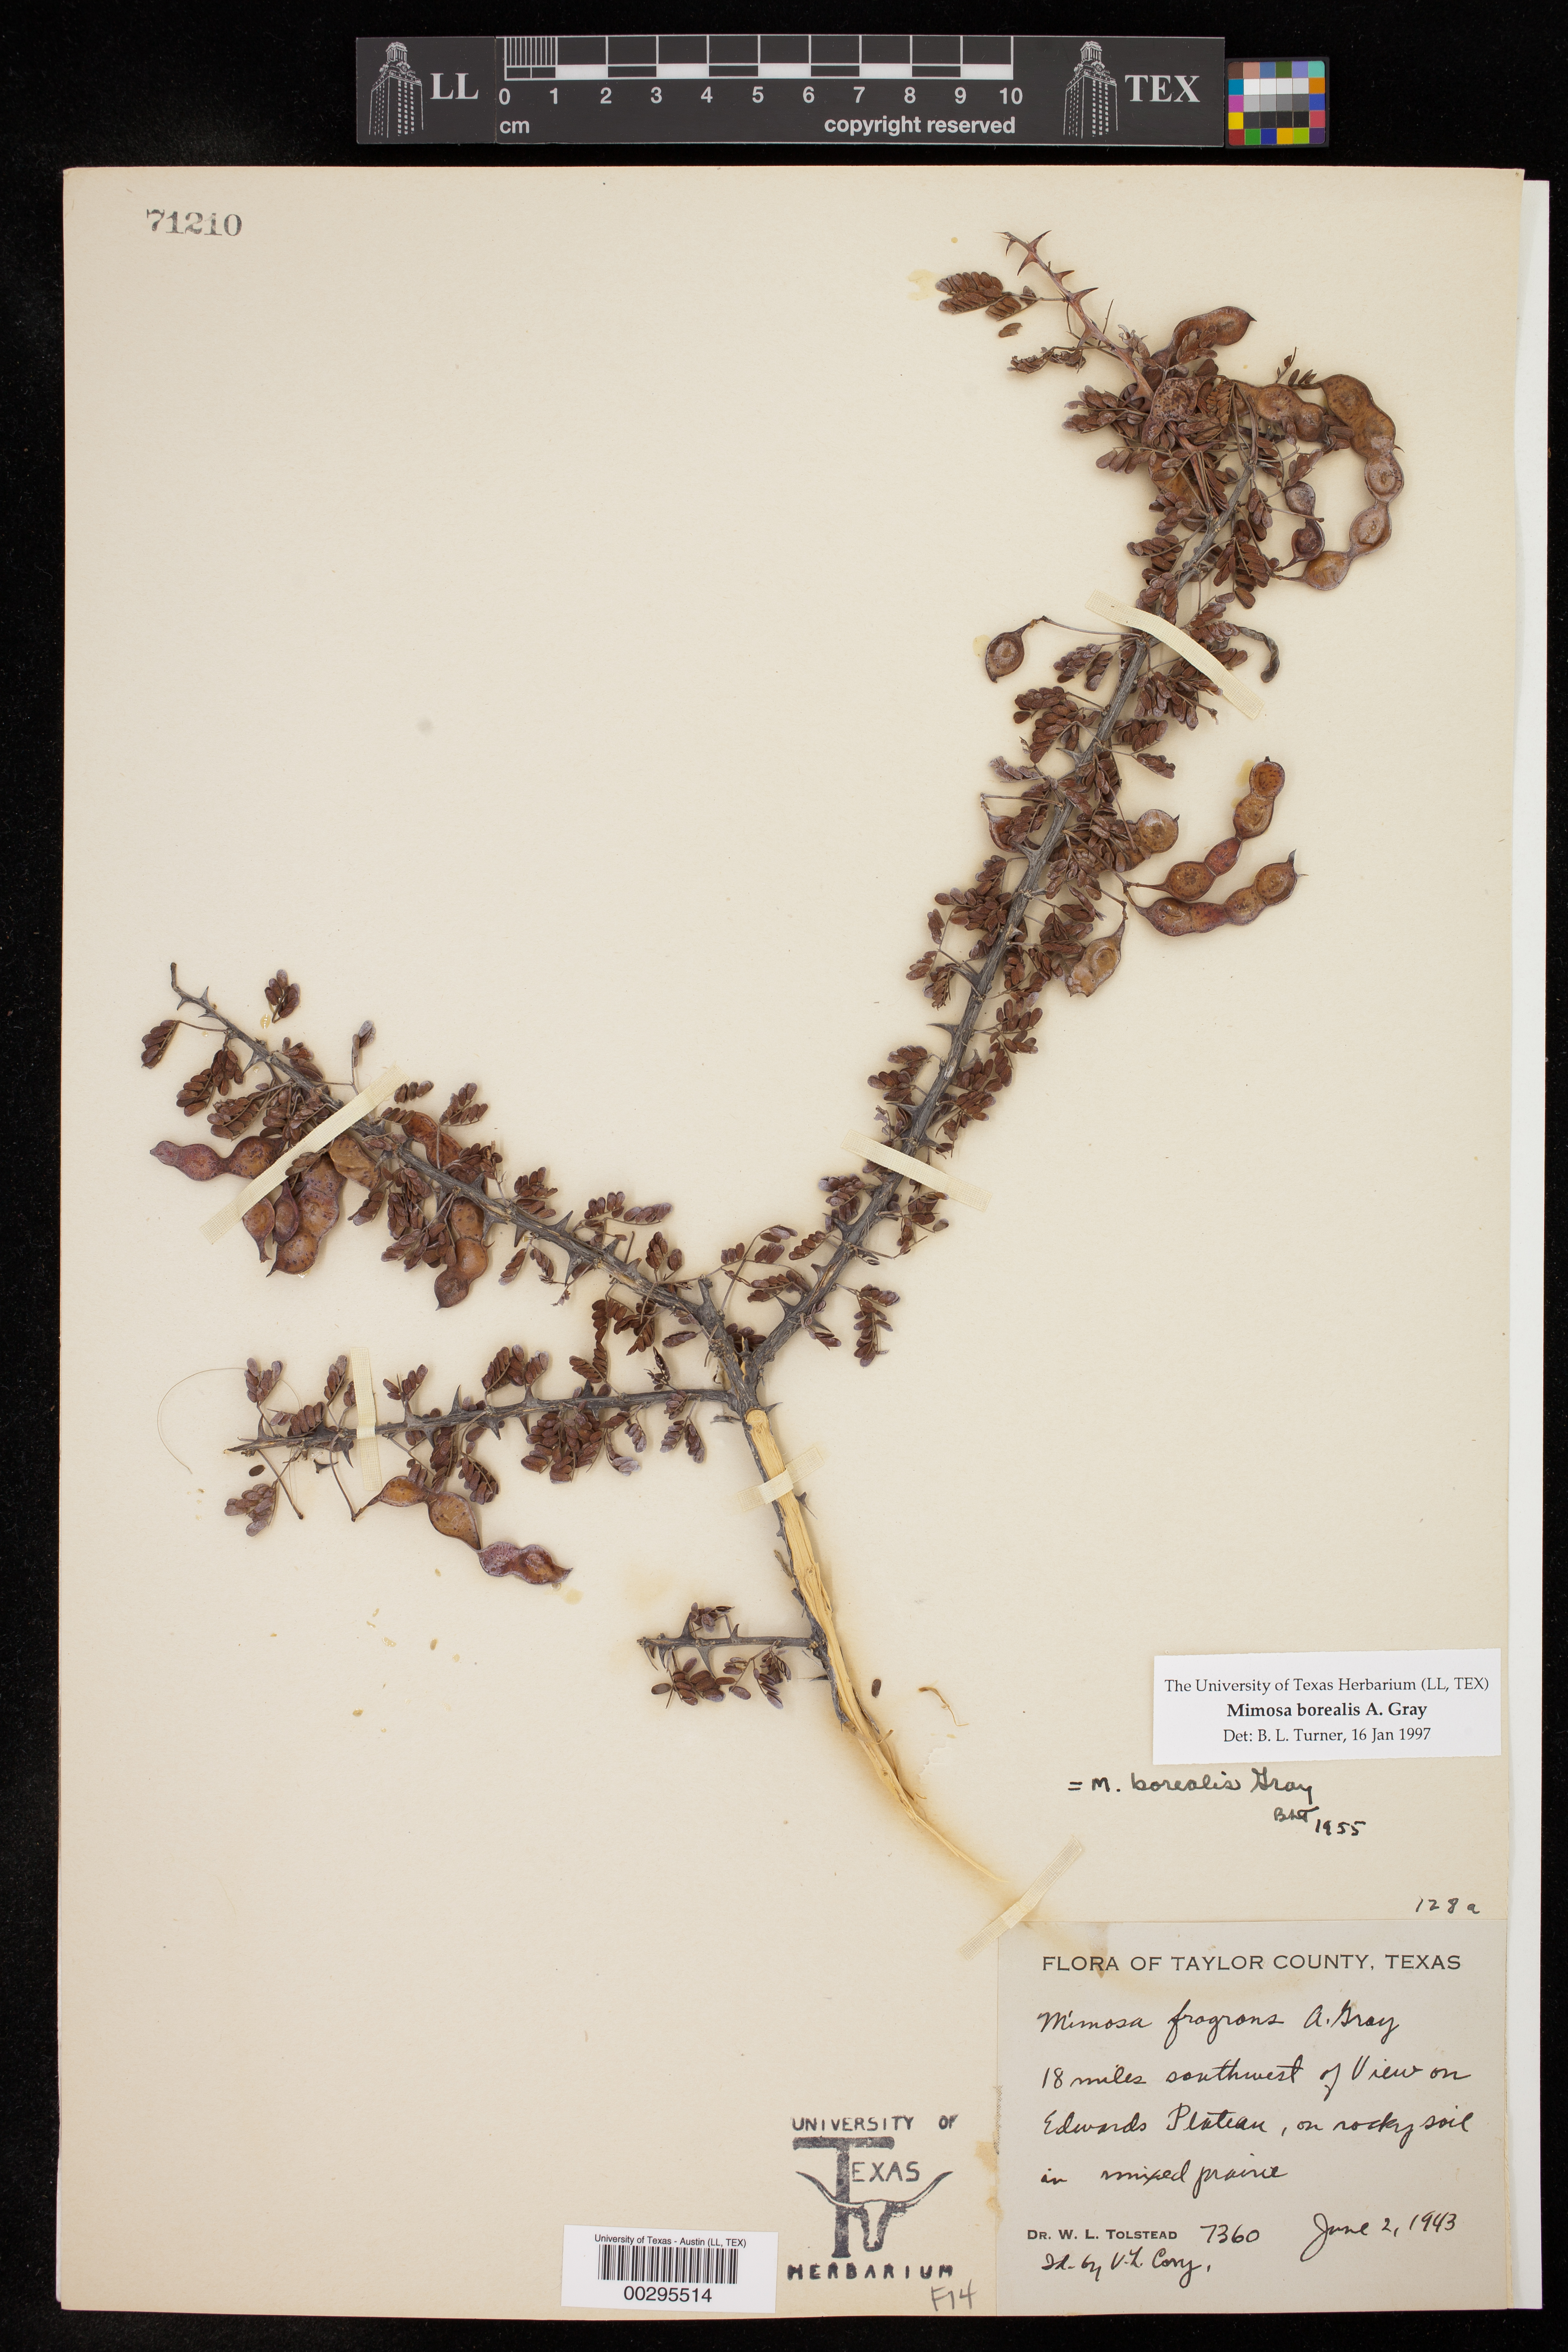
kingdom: Plantae
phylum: Tracheophyta
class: Magnoliopsida
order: Fabales
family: Fabaceae
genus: Mimosa
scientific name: Mimosa borealis
